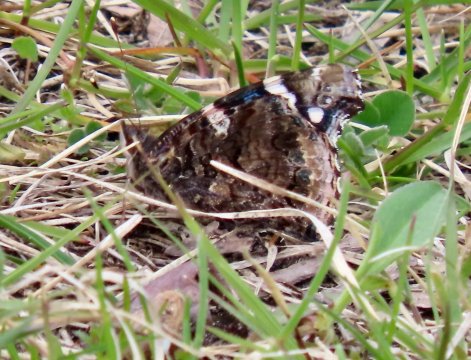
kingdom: Animalia
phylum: Arthropoda
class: Insecta
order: Lepidoptera
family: Nymphalidae
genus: Vanessa
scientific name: Vanessa atalanta
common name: Red Admiral
